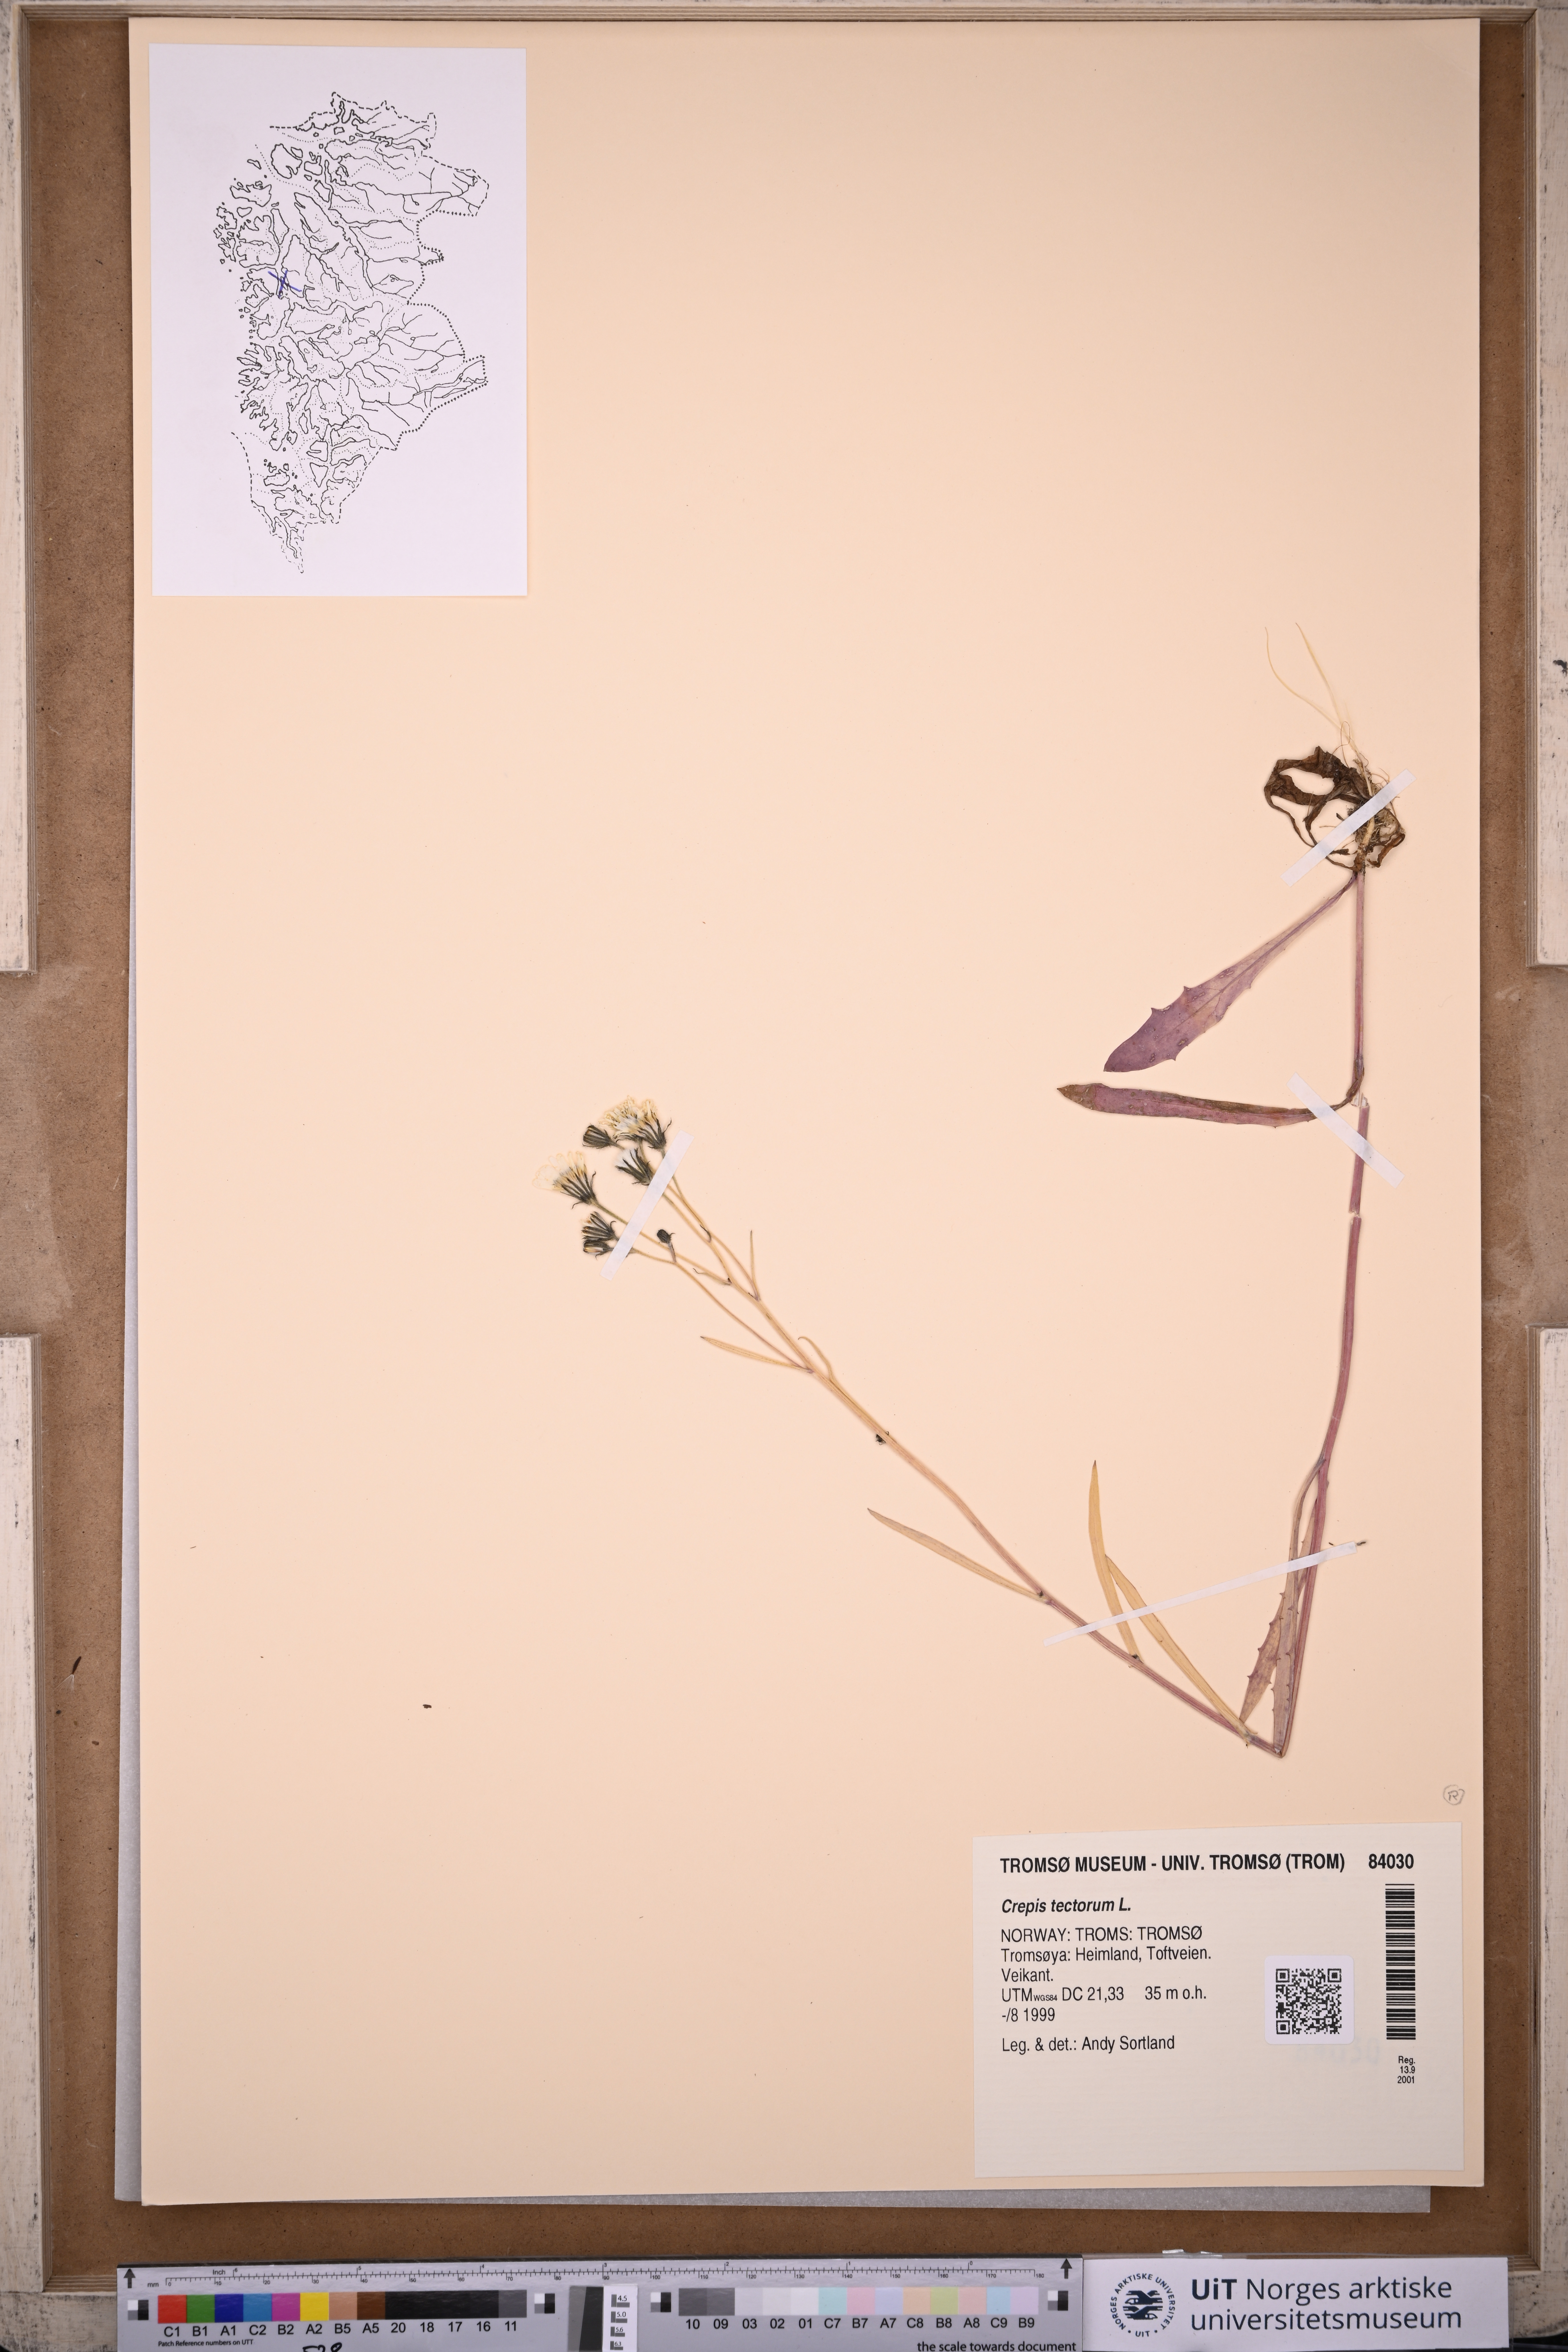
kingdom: Plantae
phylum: Tracheophyta
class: Magnoliopsida
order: Asterales
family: Asteraceae
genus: Crepis
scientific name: Crepis tectorum
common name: Narrow-leaved hawk's-beard
